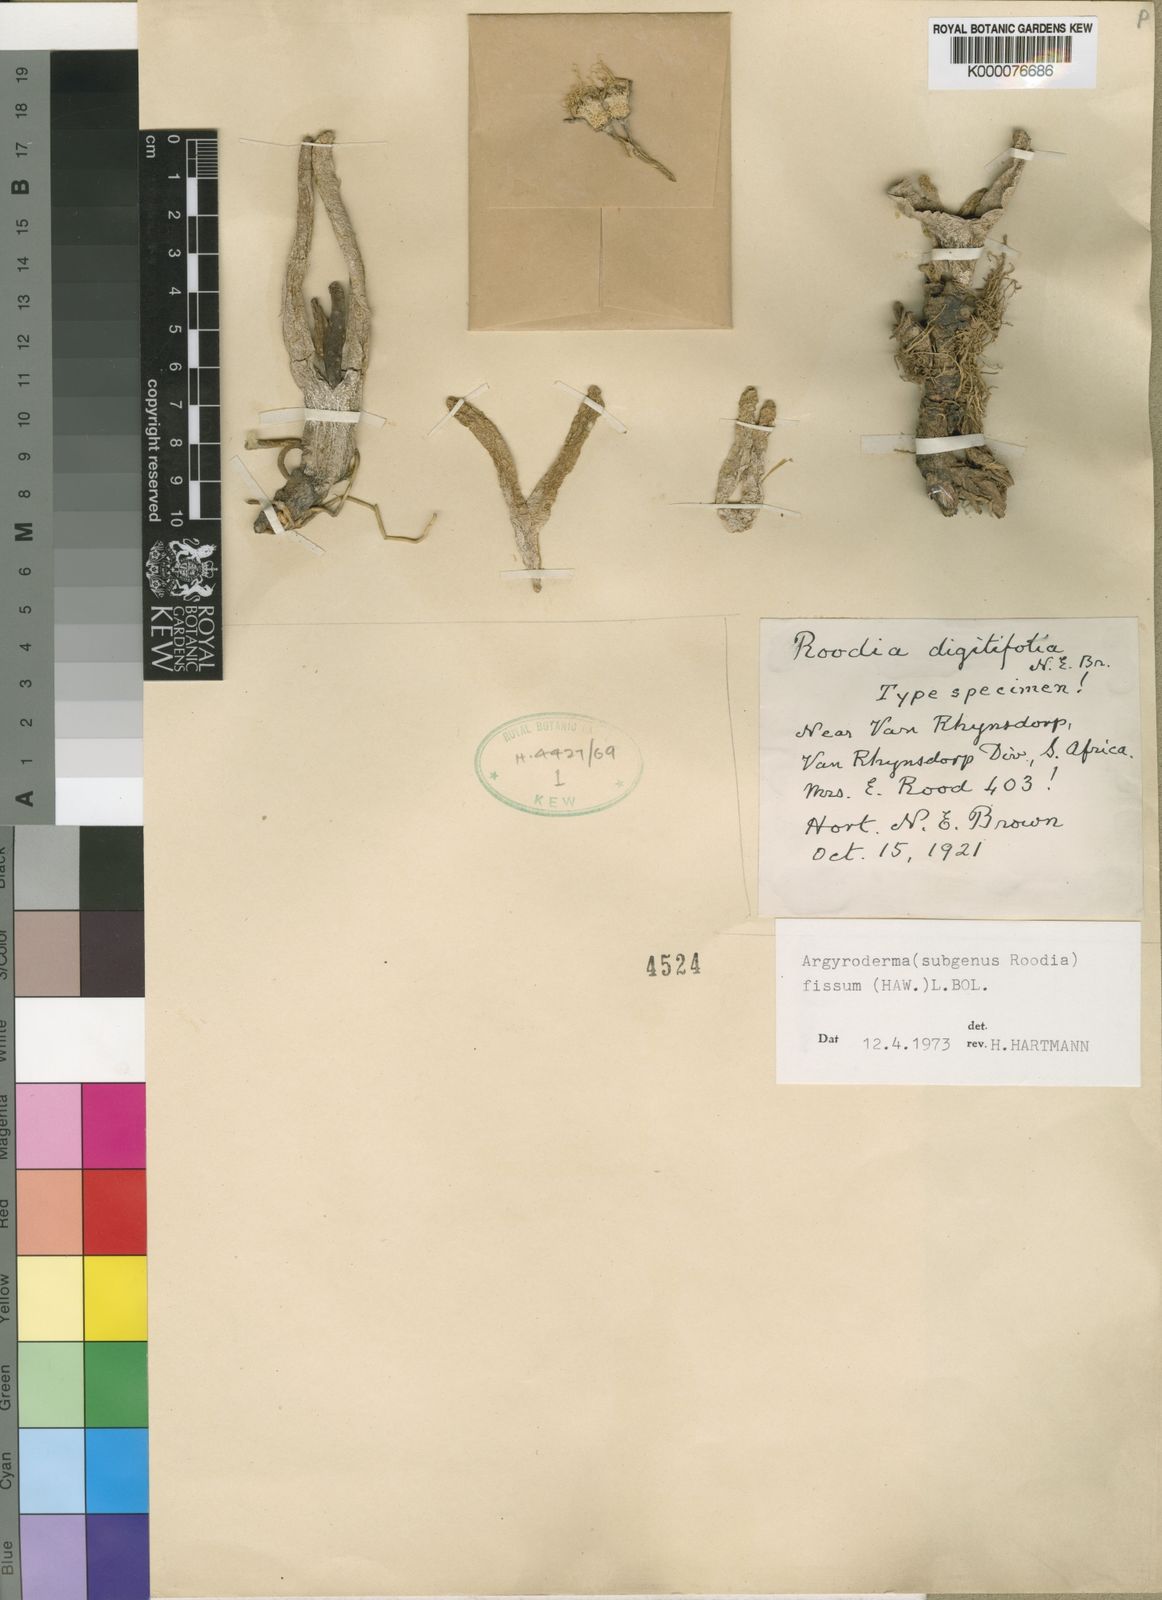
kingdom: Plantae
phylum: Tracheophyta
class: Magnoliopsida
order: Caryophyllales
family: Aizoaceae
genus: Argyroderma
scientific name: Argyroderma fissum
